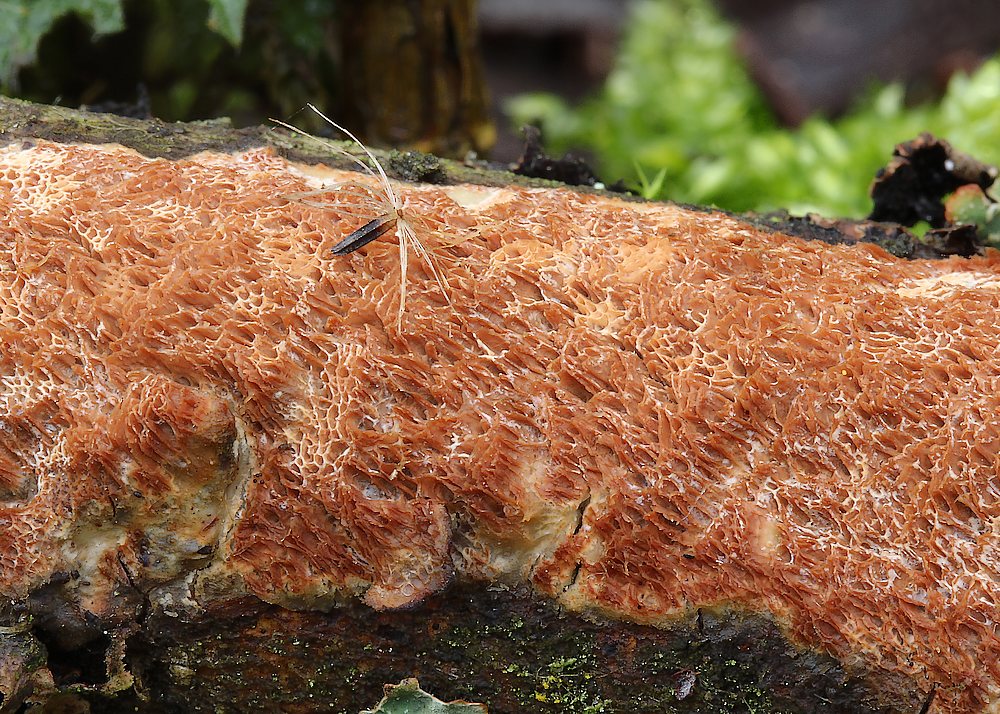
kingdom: Fungi
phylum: Basidiomycota
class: Agaricomycetes
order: Polyporales
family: Irpicaceae
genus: Resiniporus
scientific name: Resiniporus resinascens
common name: trist pastelporesvamp
